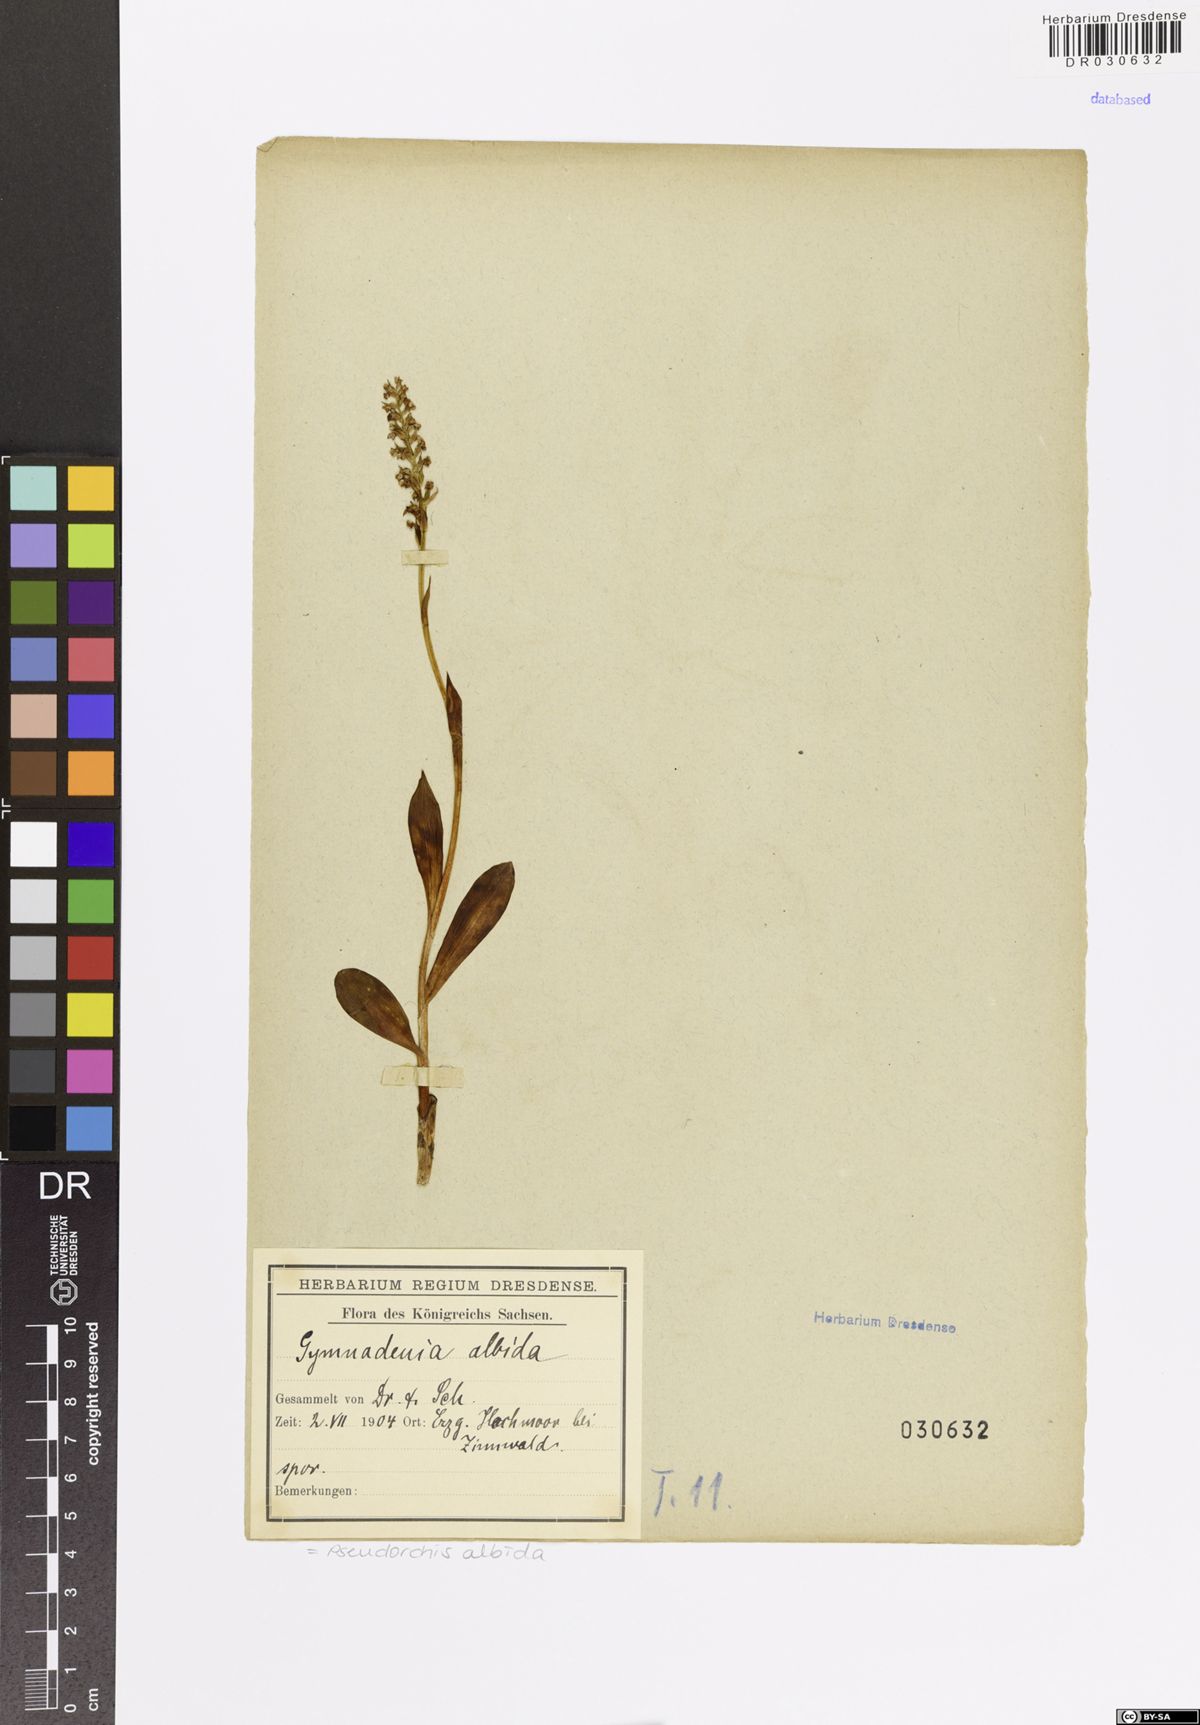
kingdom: Plantae
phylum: Tracheophyta
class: Liliopsida
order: Asparagales
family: Orchidaceae
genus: Pseudorchis
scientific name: Pseudorchis albida
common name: Small-white orchid
